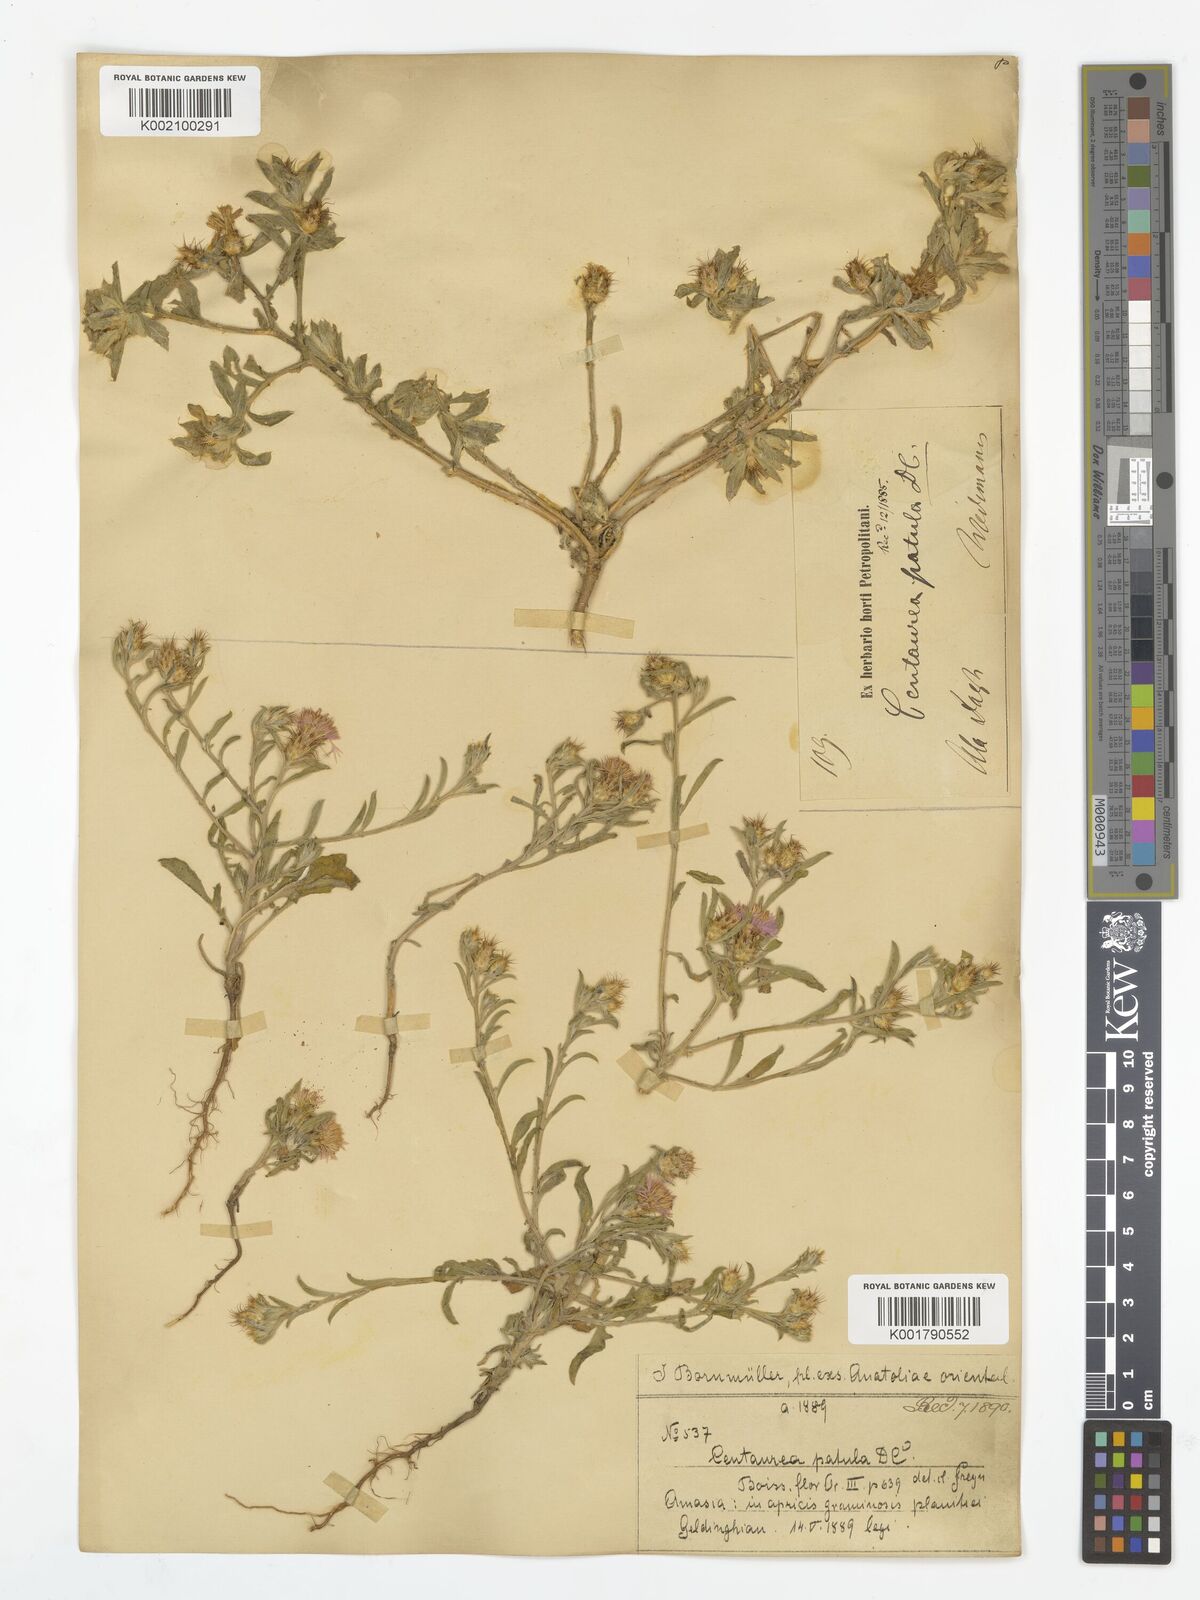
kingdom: Plantae
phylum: Tracheophyta
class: Magnoliopsida
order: Asterales
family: Asteraceae
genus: Centaurea
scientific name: Centaurea patula
